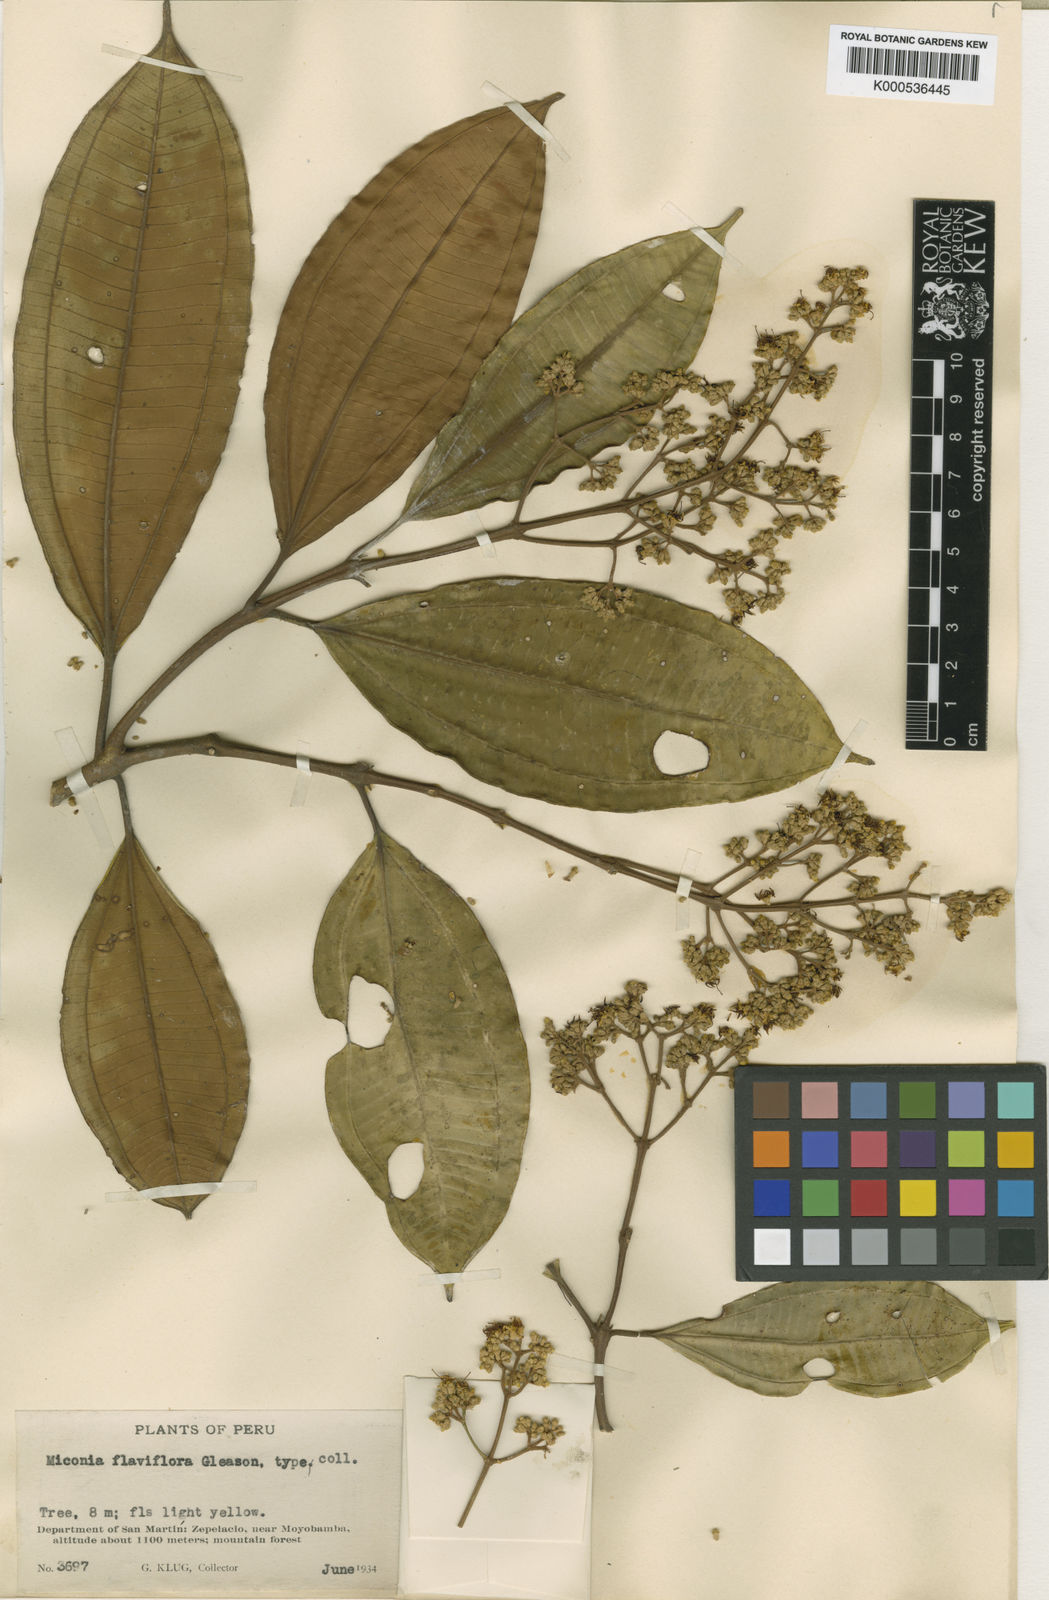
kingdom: Plantae
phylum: Tracheophyta
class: Magnoliopsida
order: Myrtales
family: Melastomataceae
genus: Miconia
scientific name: Miconia nutans
